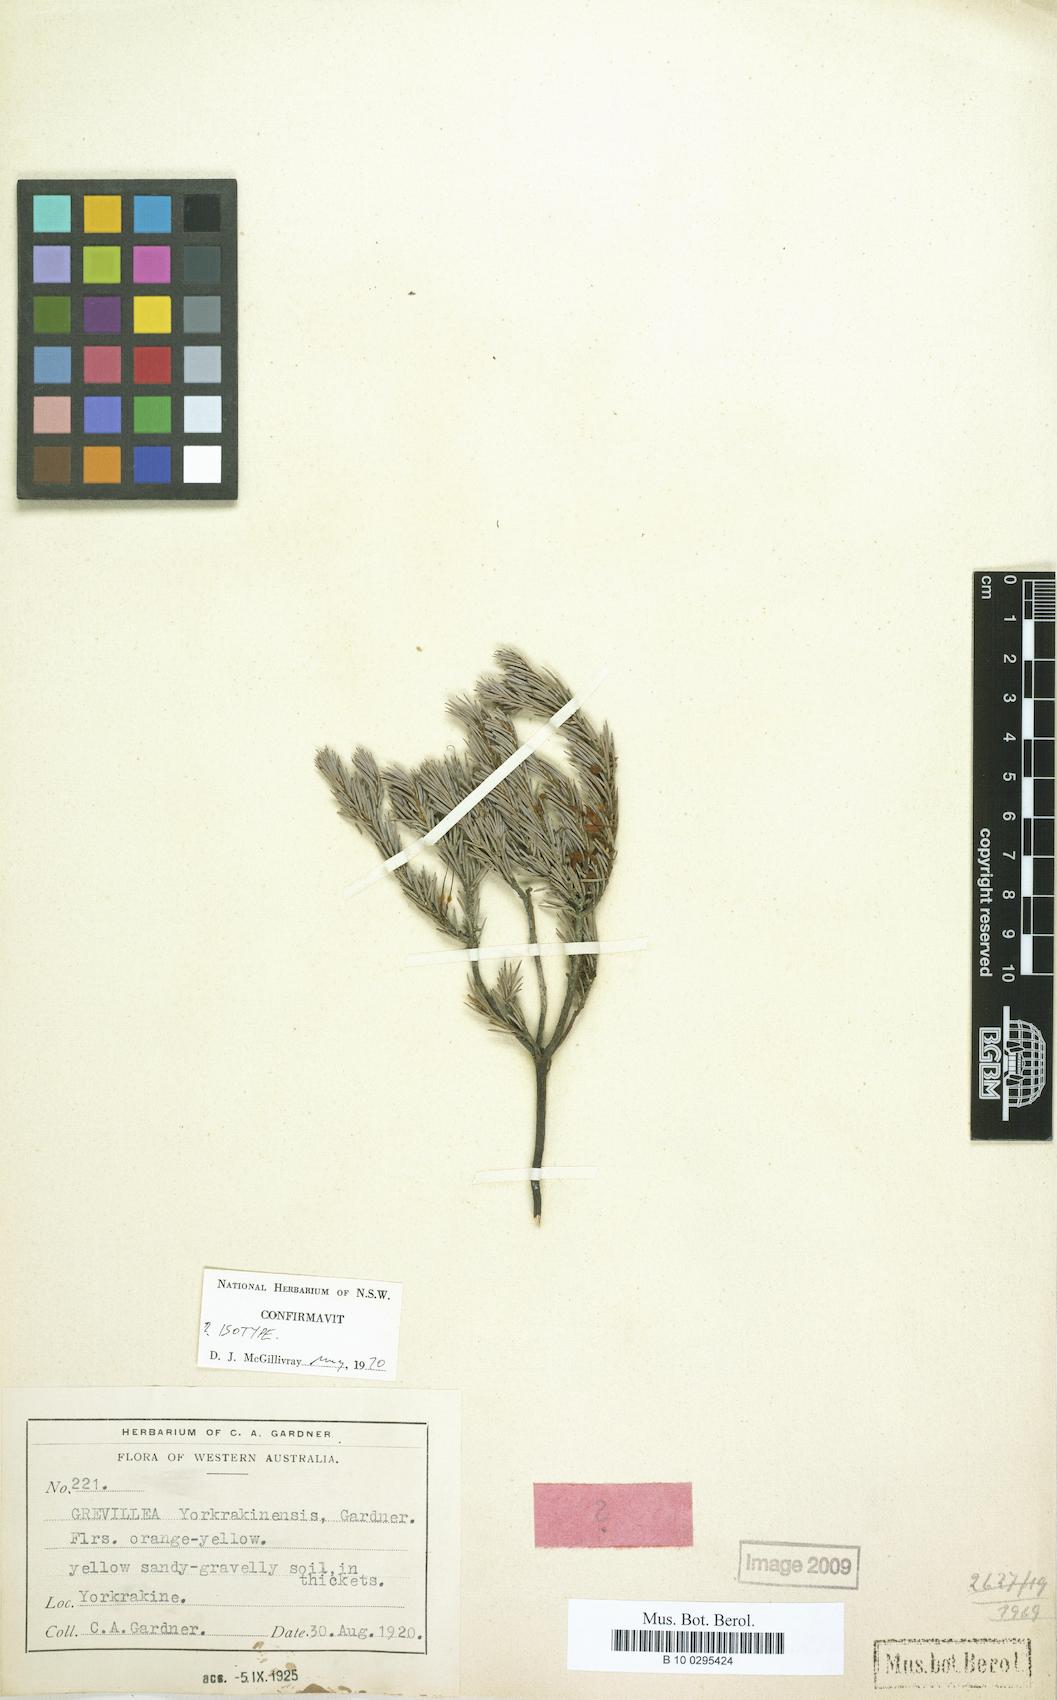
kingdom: Plantae
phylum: Tracheophyta
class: Magnoliopsida
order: Proteales
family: Proteaceae
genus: Grevillea
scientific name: Grevillea yorkrakinensis
